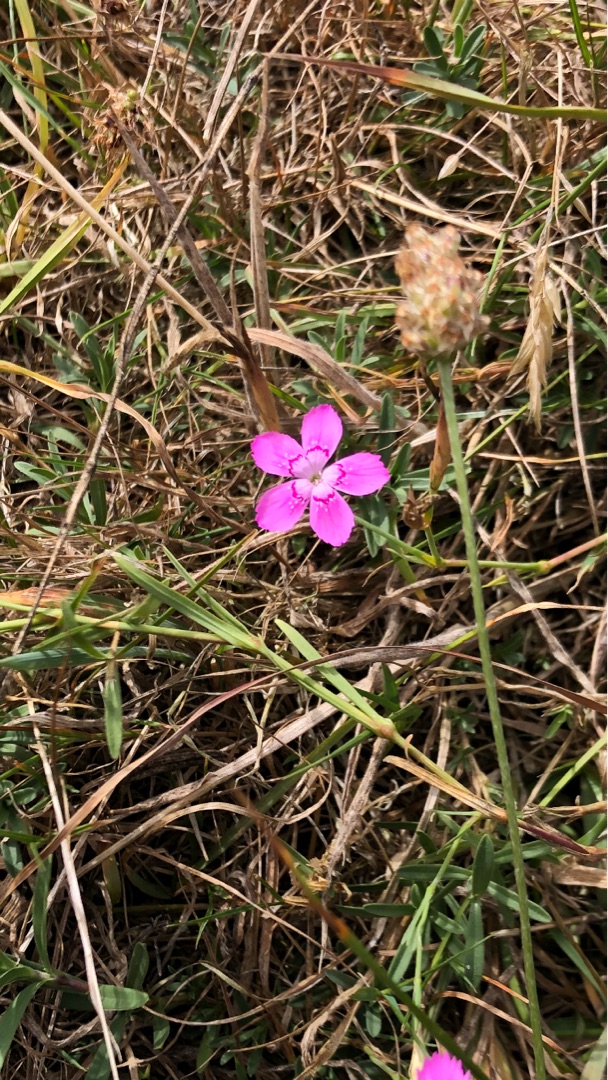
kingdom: Plantae
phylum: Tracheophyta
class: Magnoliopsida
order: Caryophyllales
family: Caryophyllaceae
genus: Dianthus
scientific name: Dianthus deltoides
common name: Bakke-nellike
